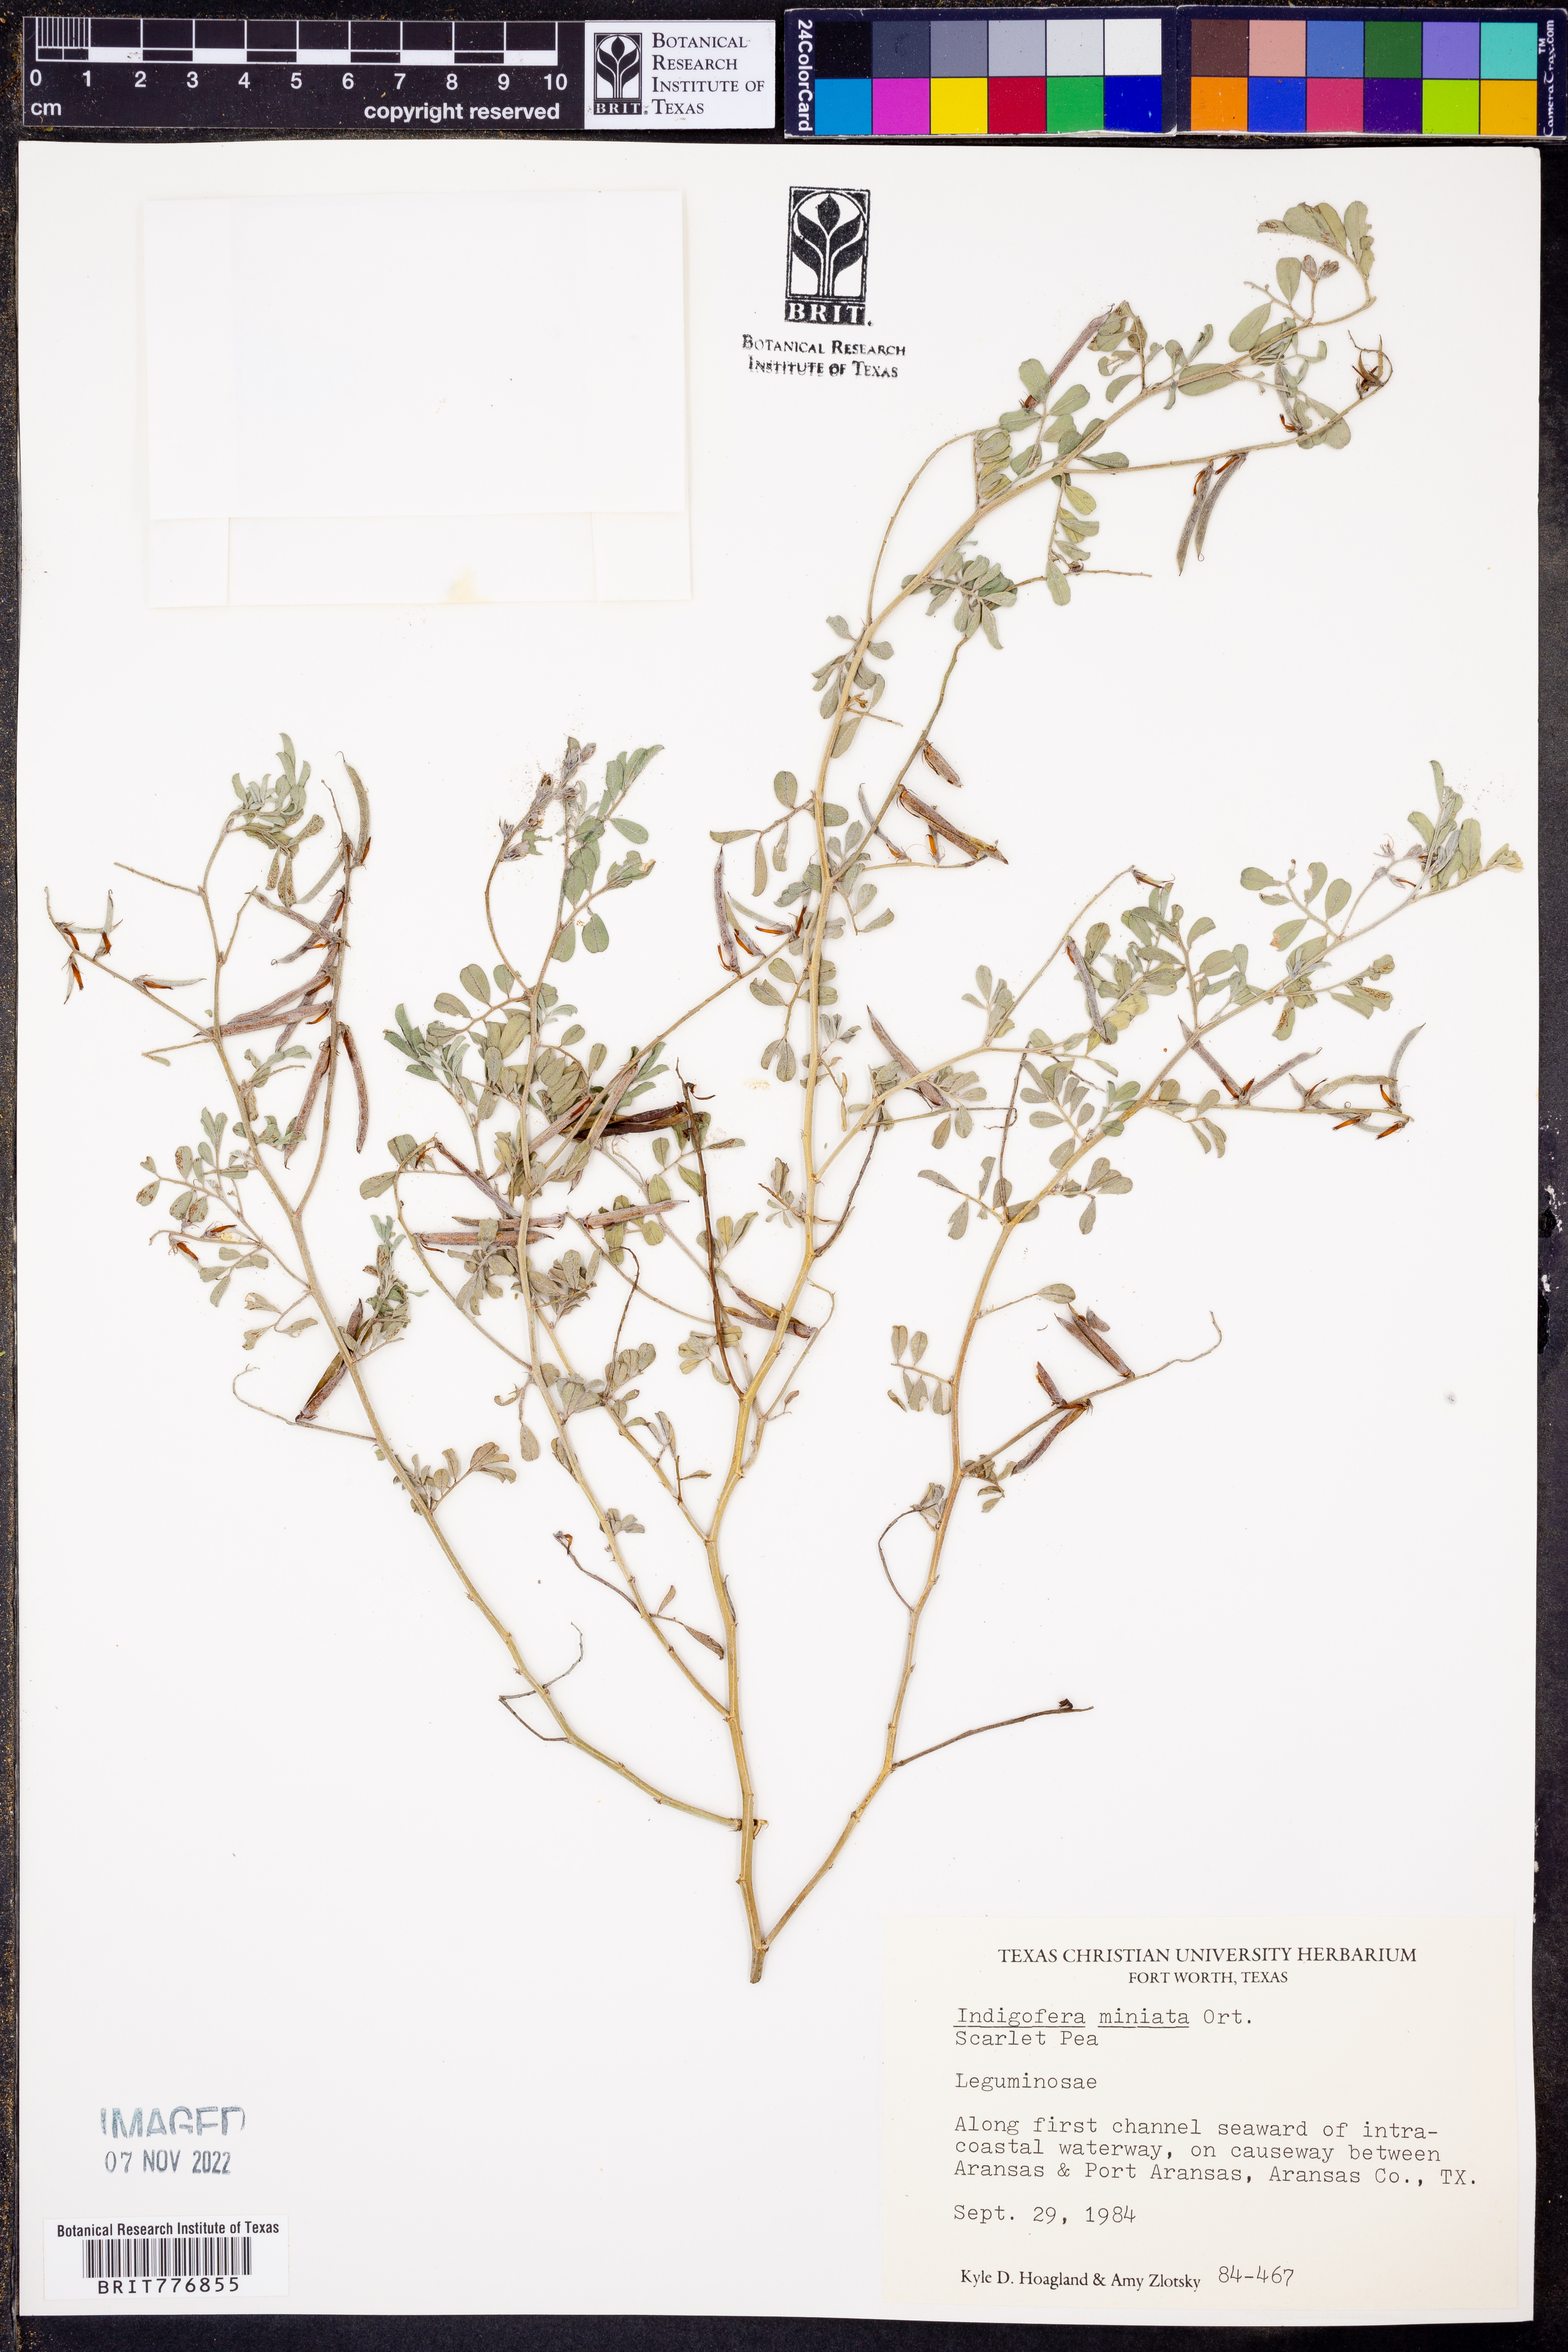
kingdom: Plantae
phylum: Tracheophyta
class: Magnoliopsida
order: Fabales
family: Fabaceae
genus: Indigofera
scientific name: Indigofera miniata
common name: Coast indigo
